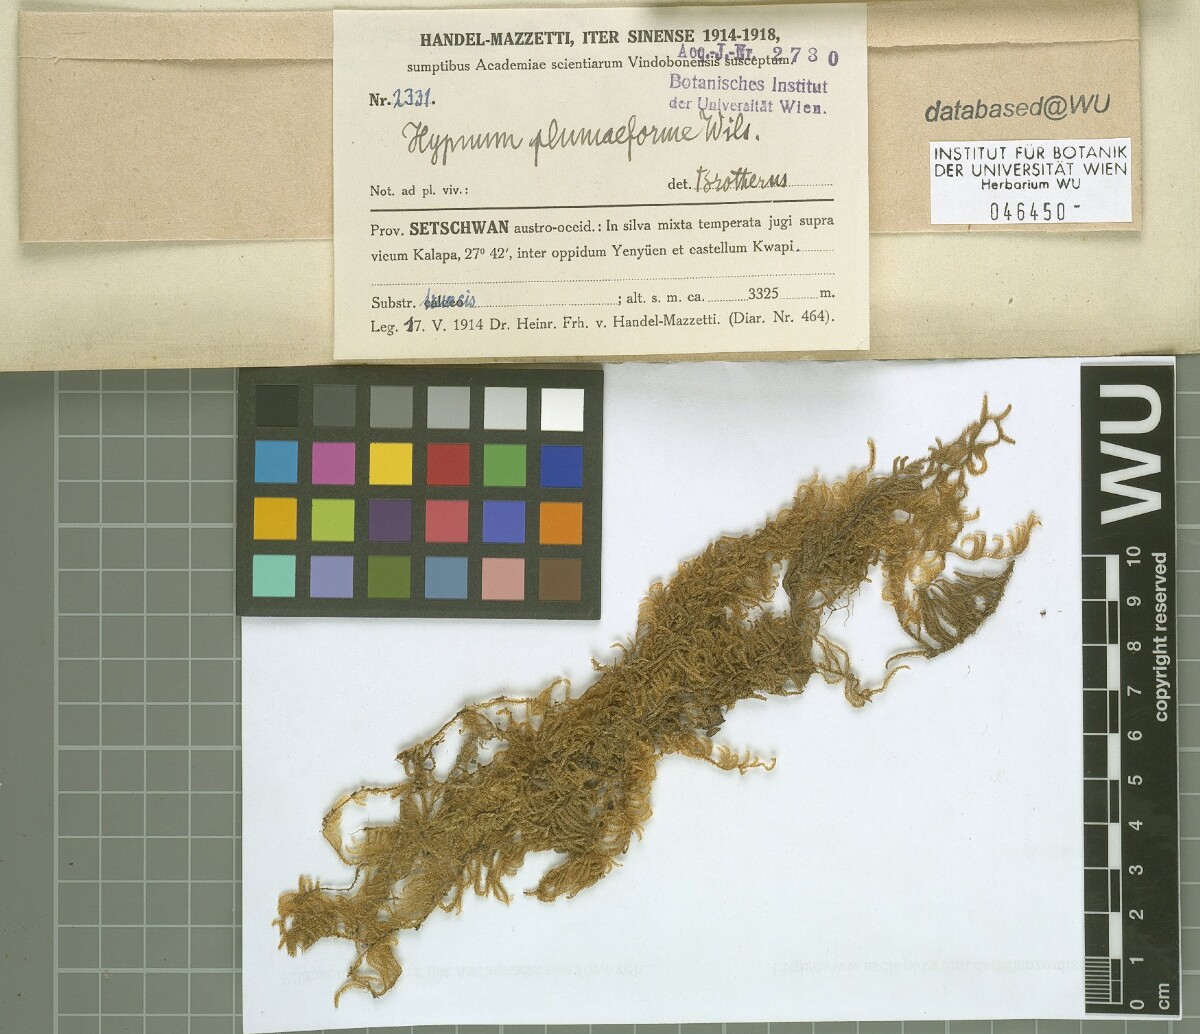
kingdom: Plantae
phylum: Bryophyta
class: Bryopsida
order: Hypnales
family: Hypnaceae
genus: Hypnum
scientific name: Hypnum plumaeforme
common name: Cypress-leaved plaitmoss
